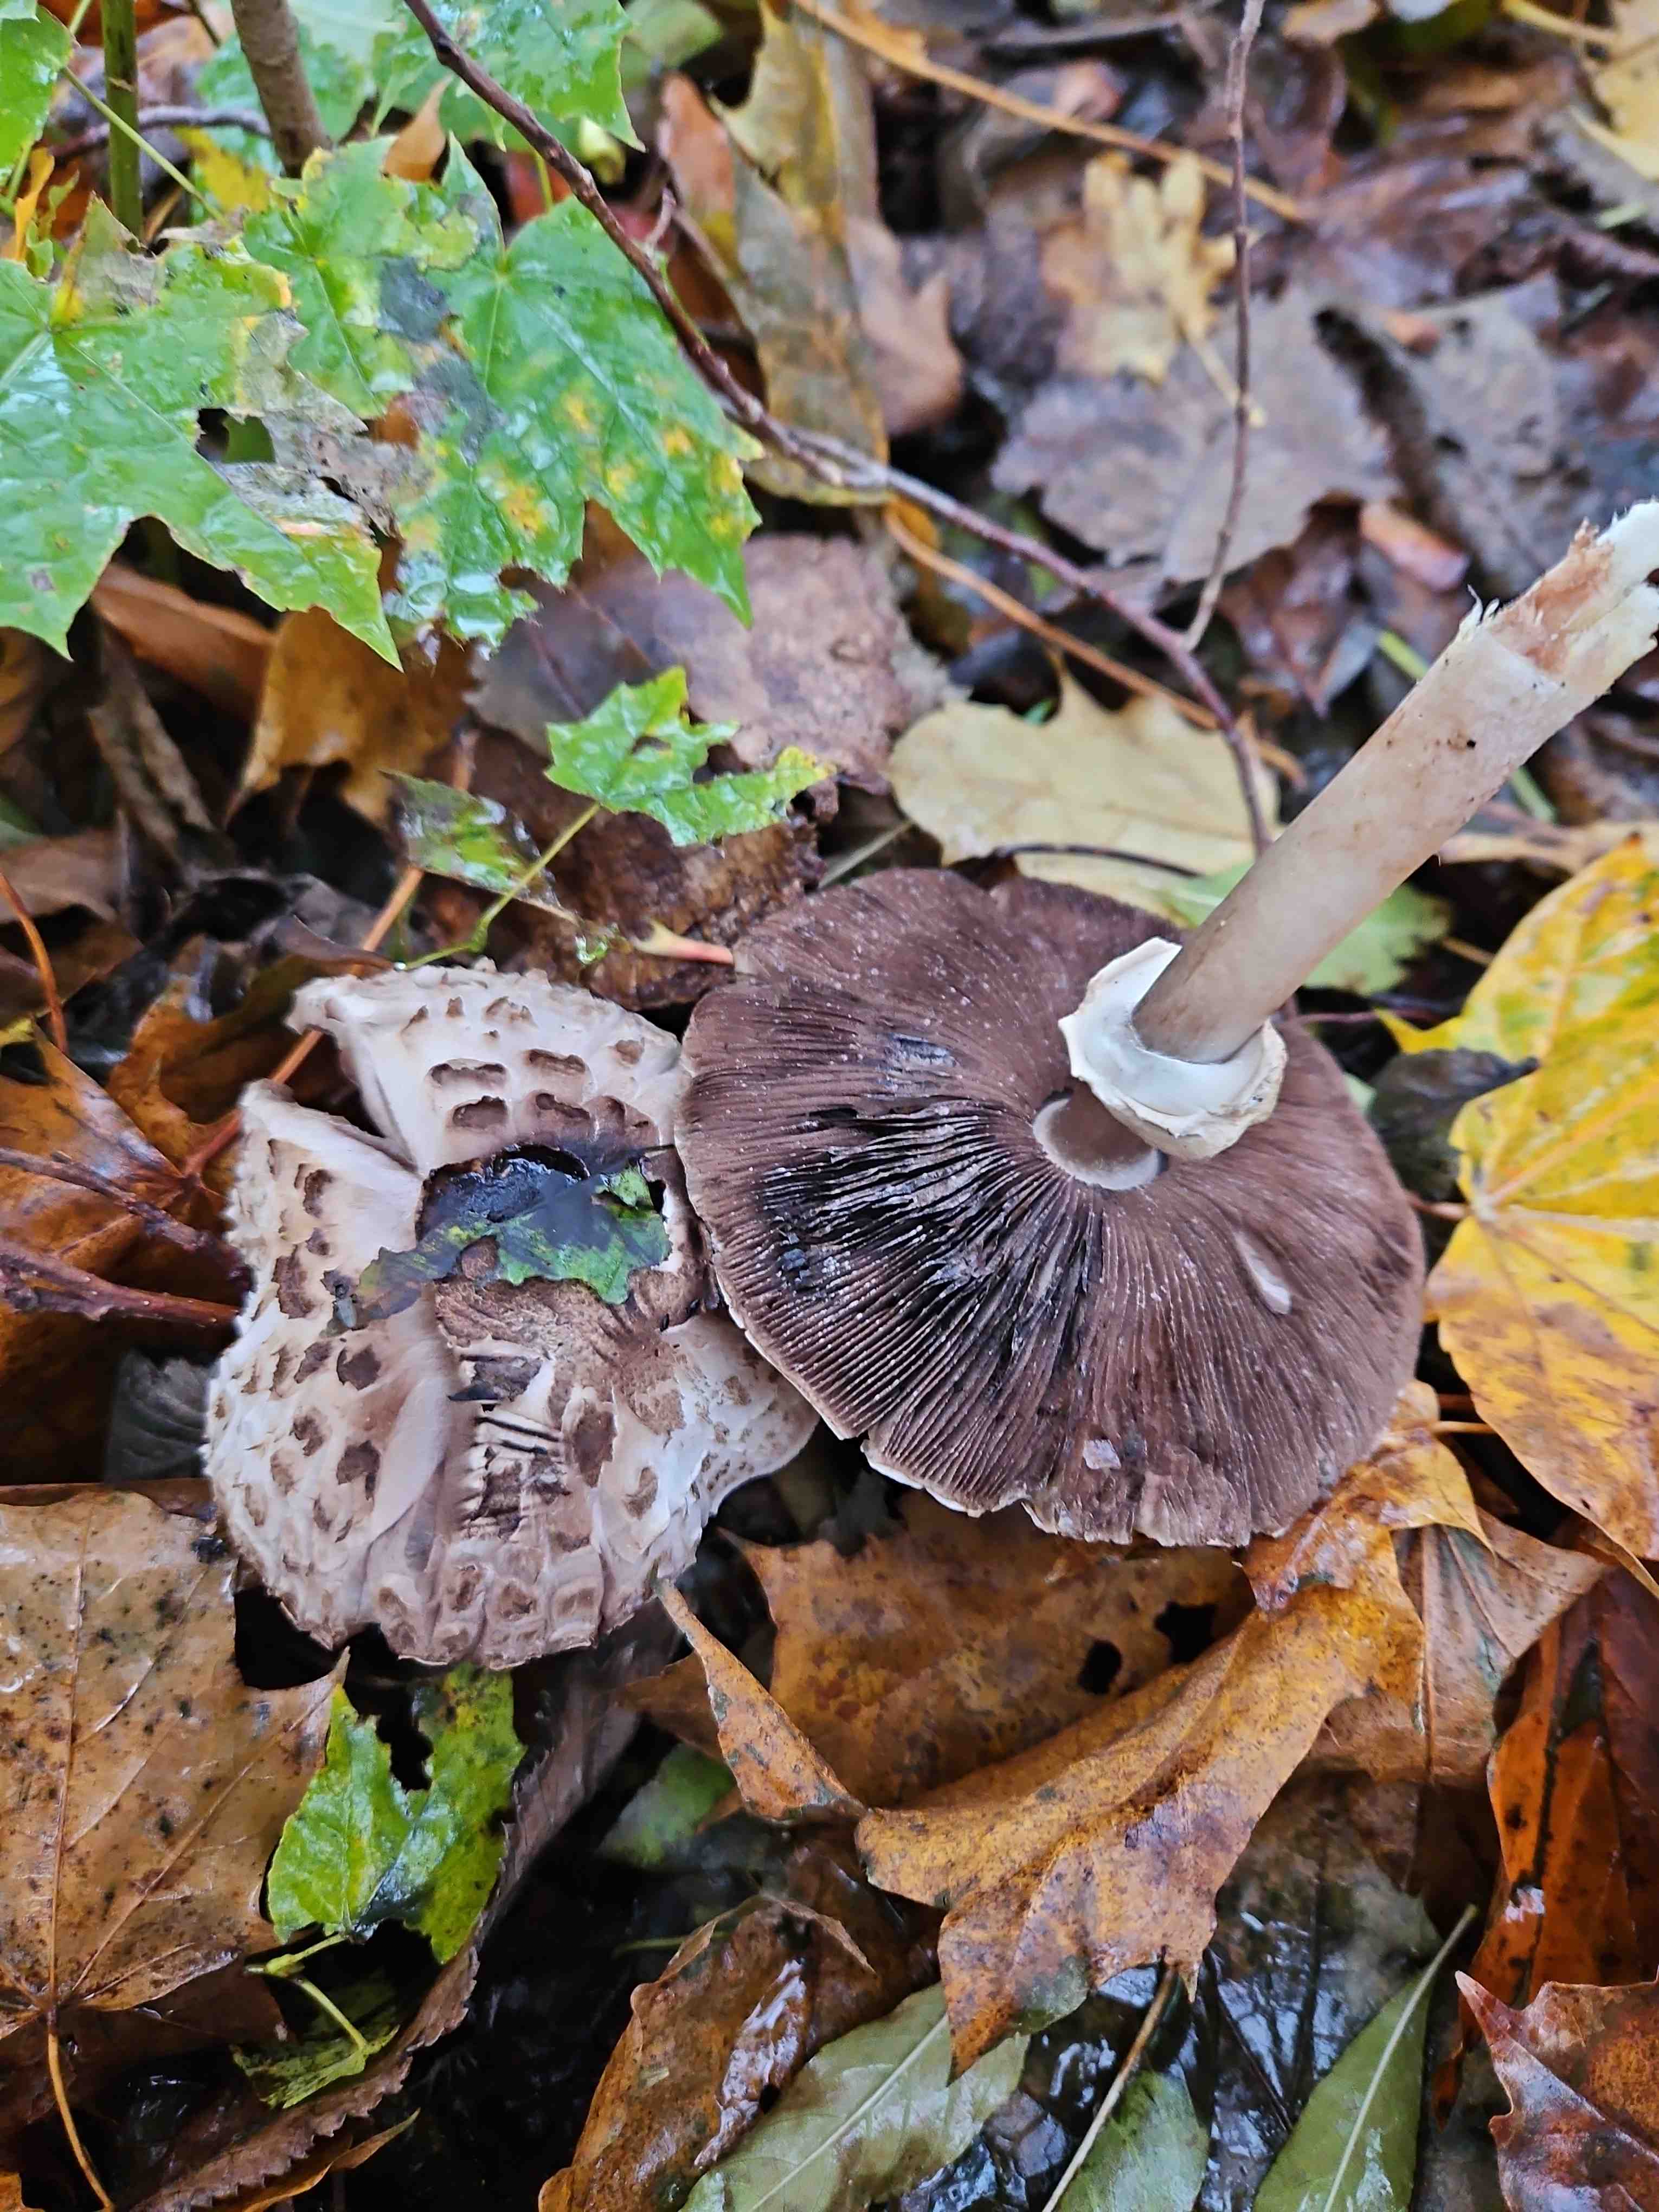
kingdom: Fungi
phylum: Basidiomycota
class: Agaricomycetes
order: Agaricales
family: Agaricaceae
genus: Agaricus
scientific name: Agaricus impudicus
